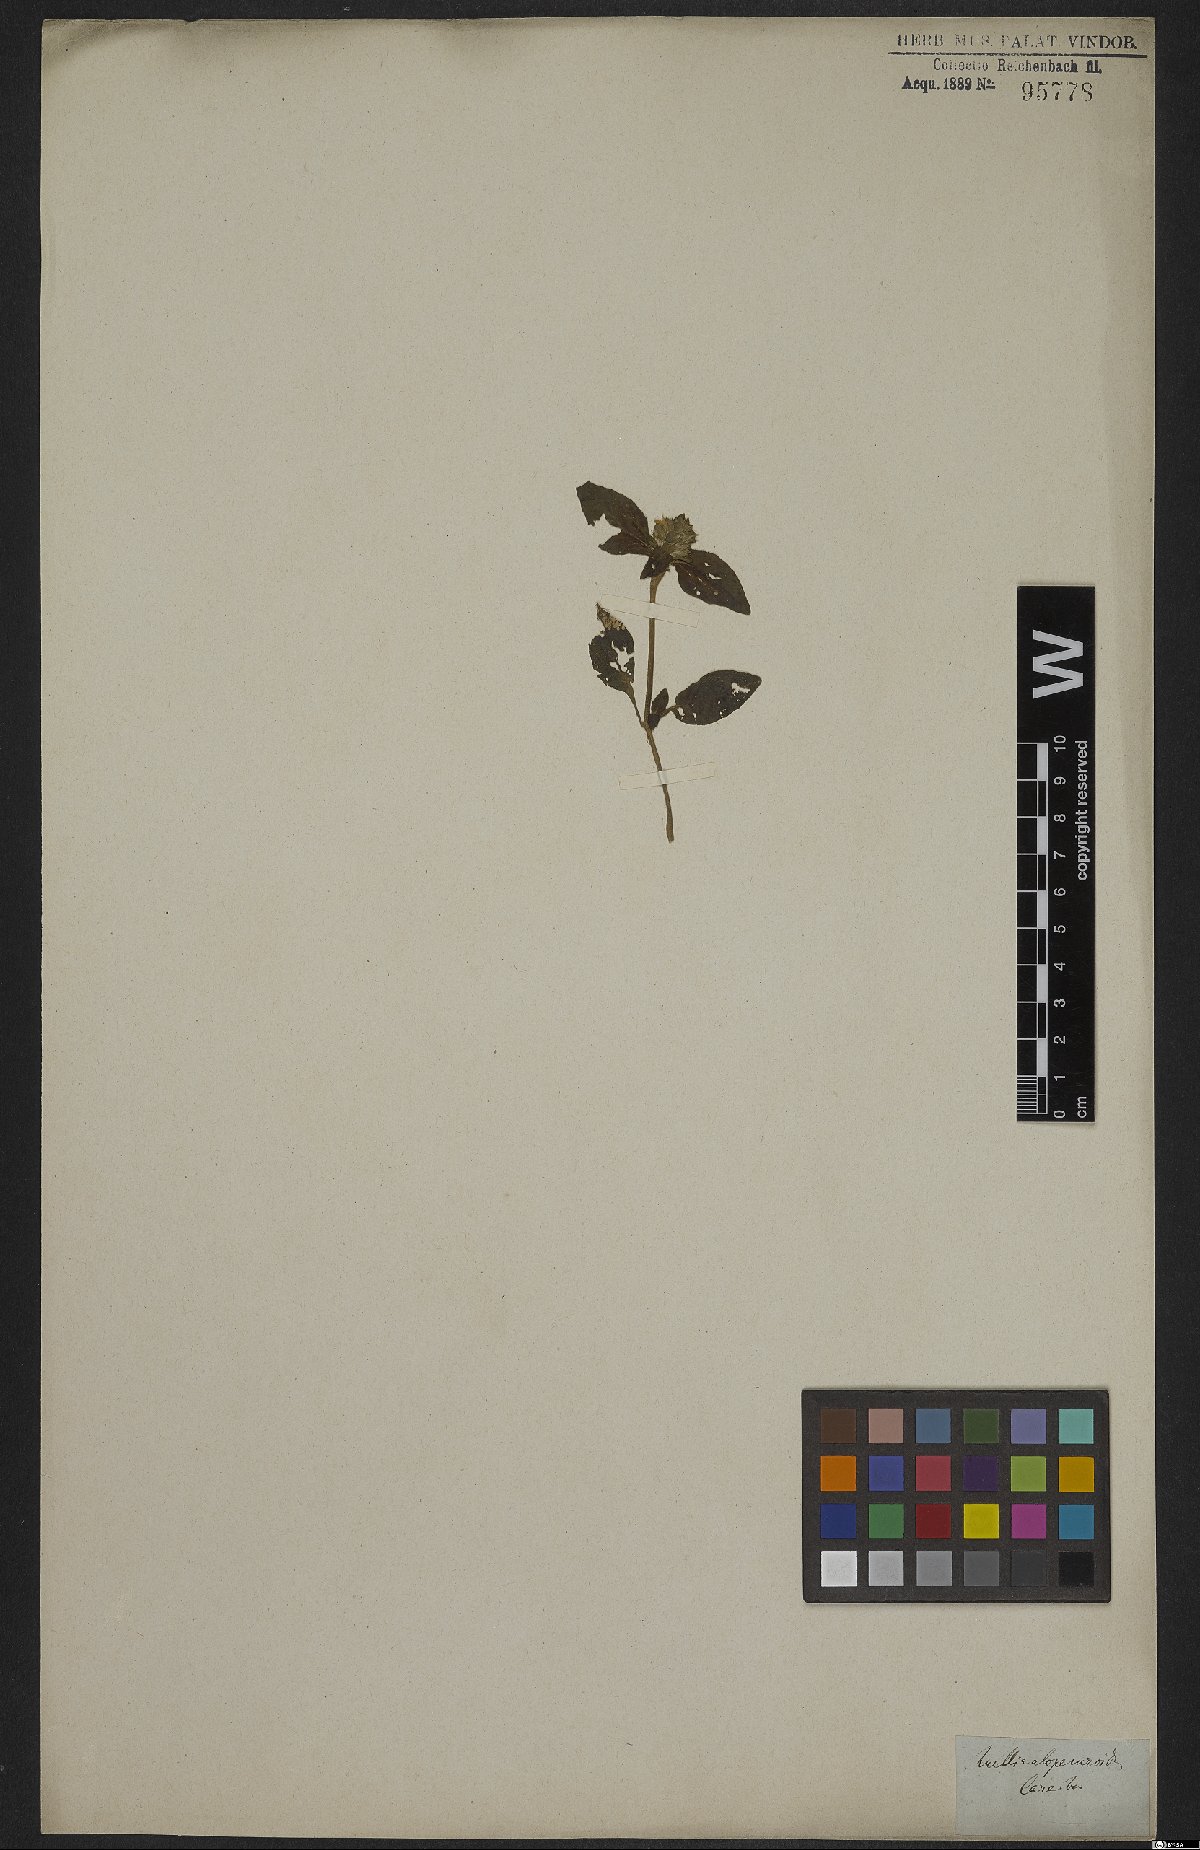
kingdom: Plantae
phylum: Tracheophyta
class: Magnoliopsida
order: Lamiales
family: Acanthaceae
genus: Lepidagathis
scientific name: Lepidagathis alopecuroidea
